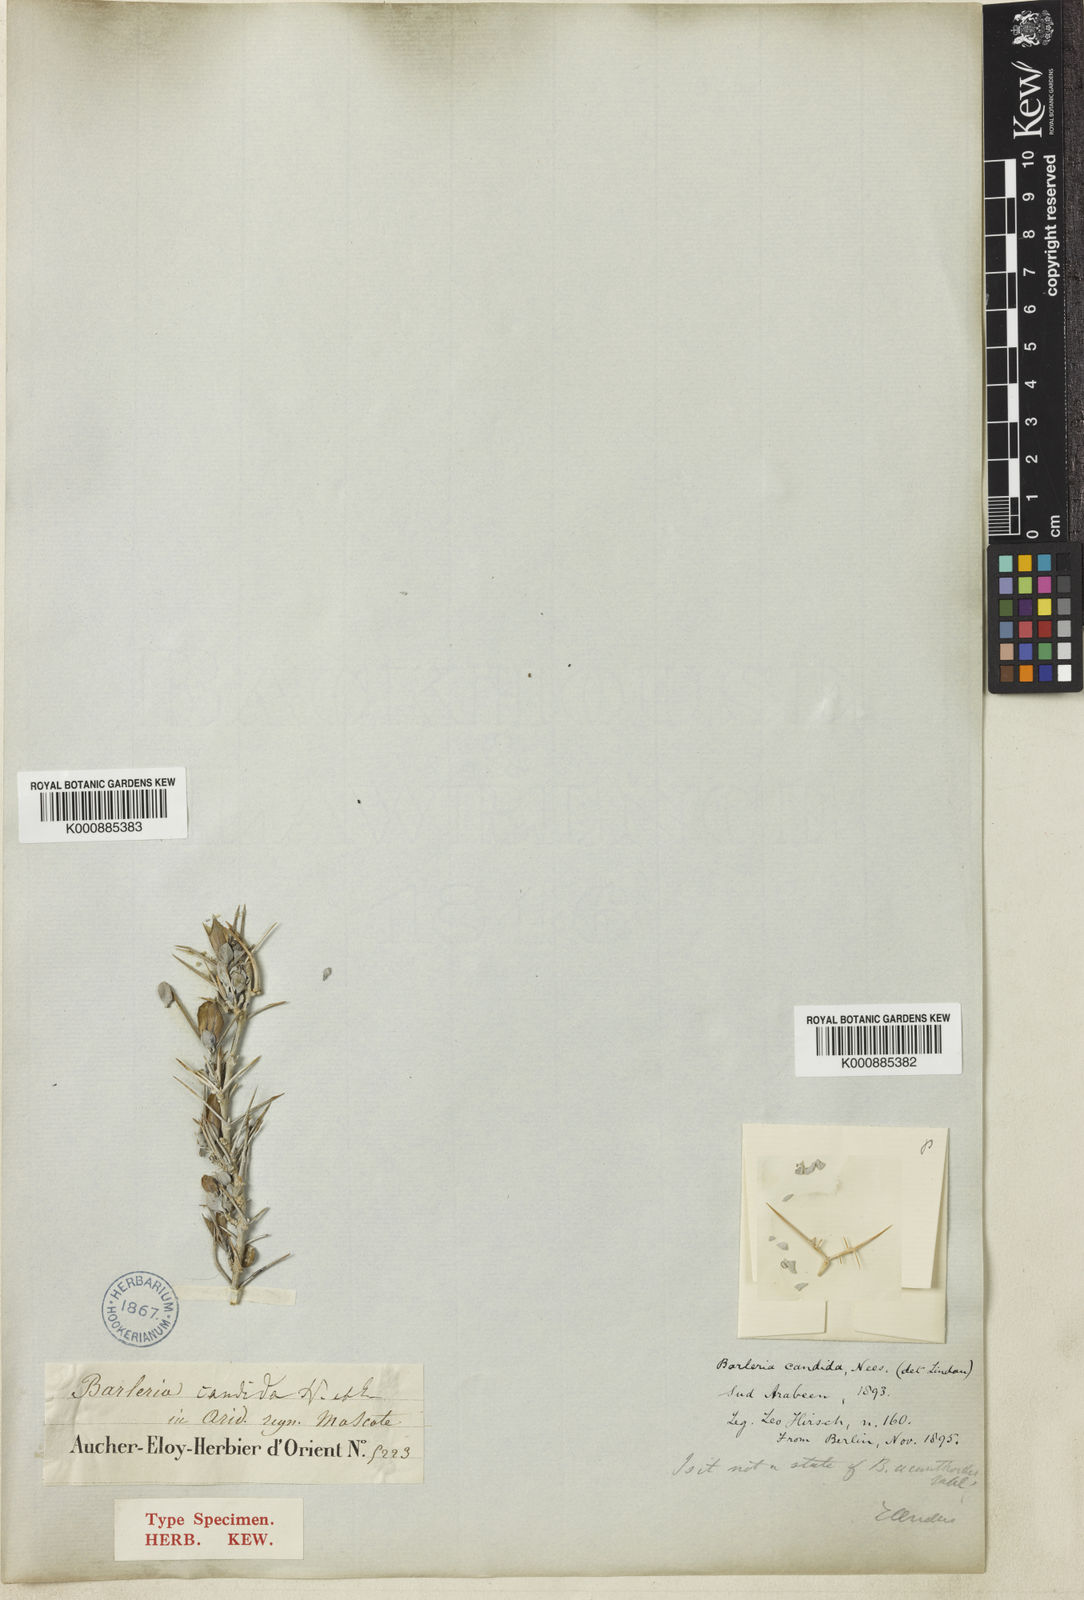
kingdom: Plantae
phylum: Tracheophyta
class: Magnoliopsida
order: Lamiales
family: Acanthaceae
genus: Barleria
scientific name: Barleria candida
